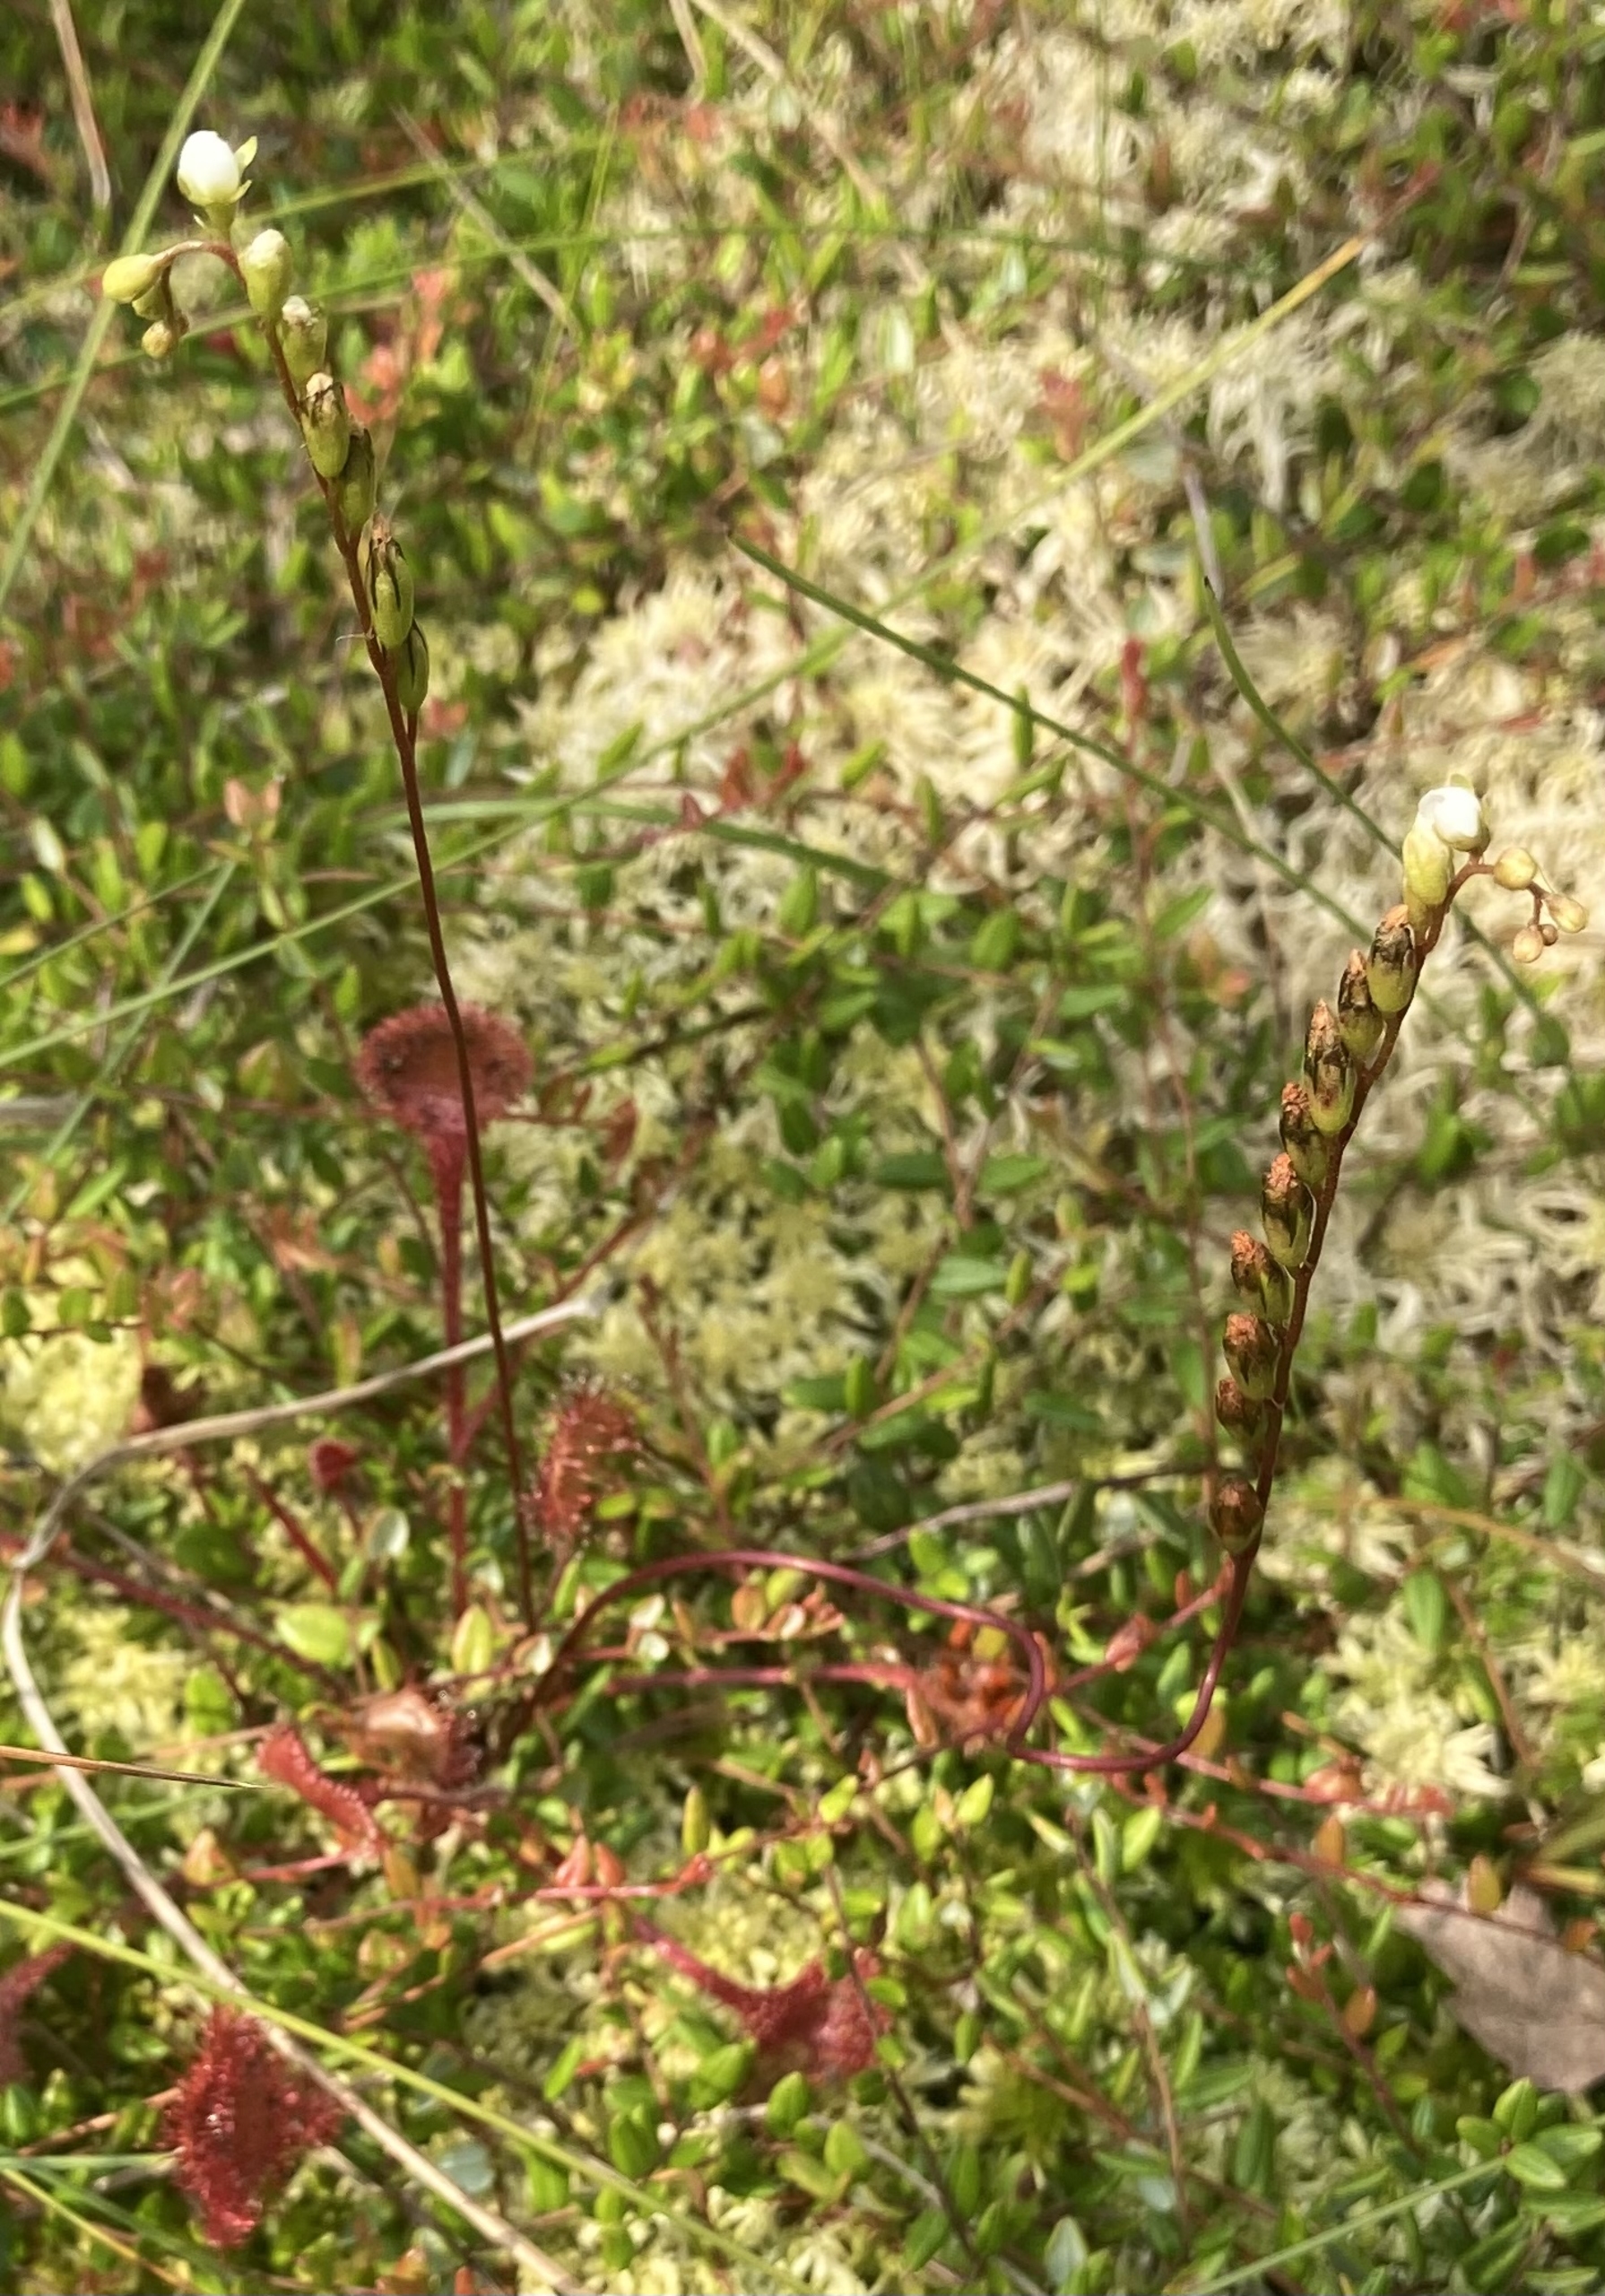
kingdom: Plantae
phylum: Tracheophyta
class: Magnoliopsida
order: Caryophyllales
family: Droseraceae
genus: Drosera
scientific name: Drosera rotundifolia
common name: Rundbladet soldug
